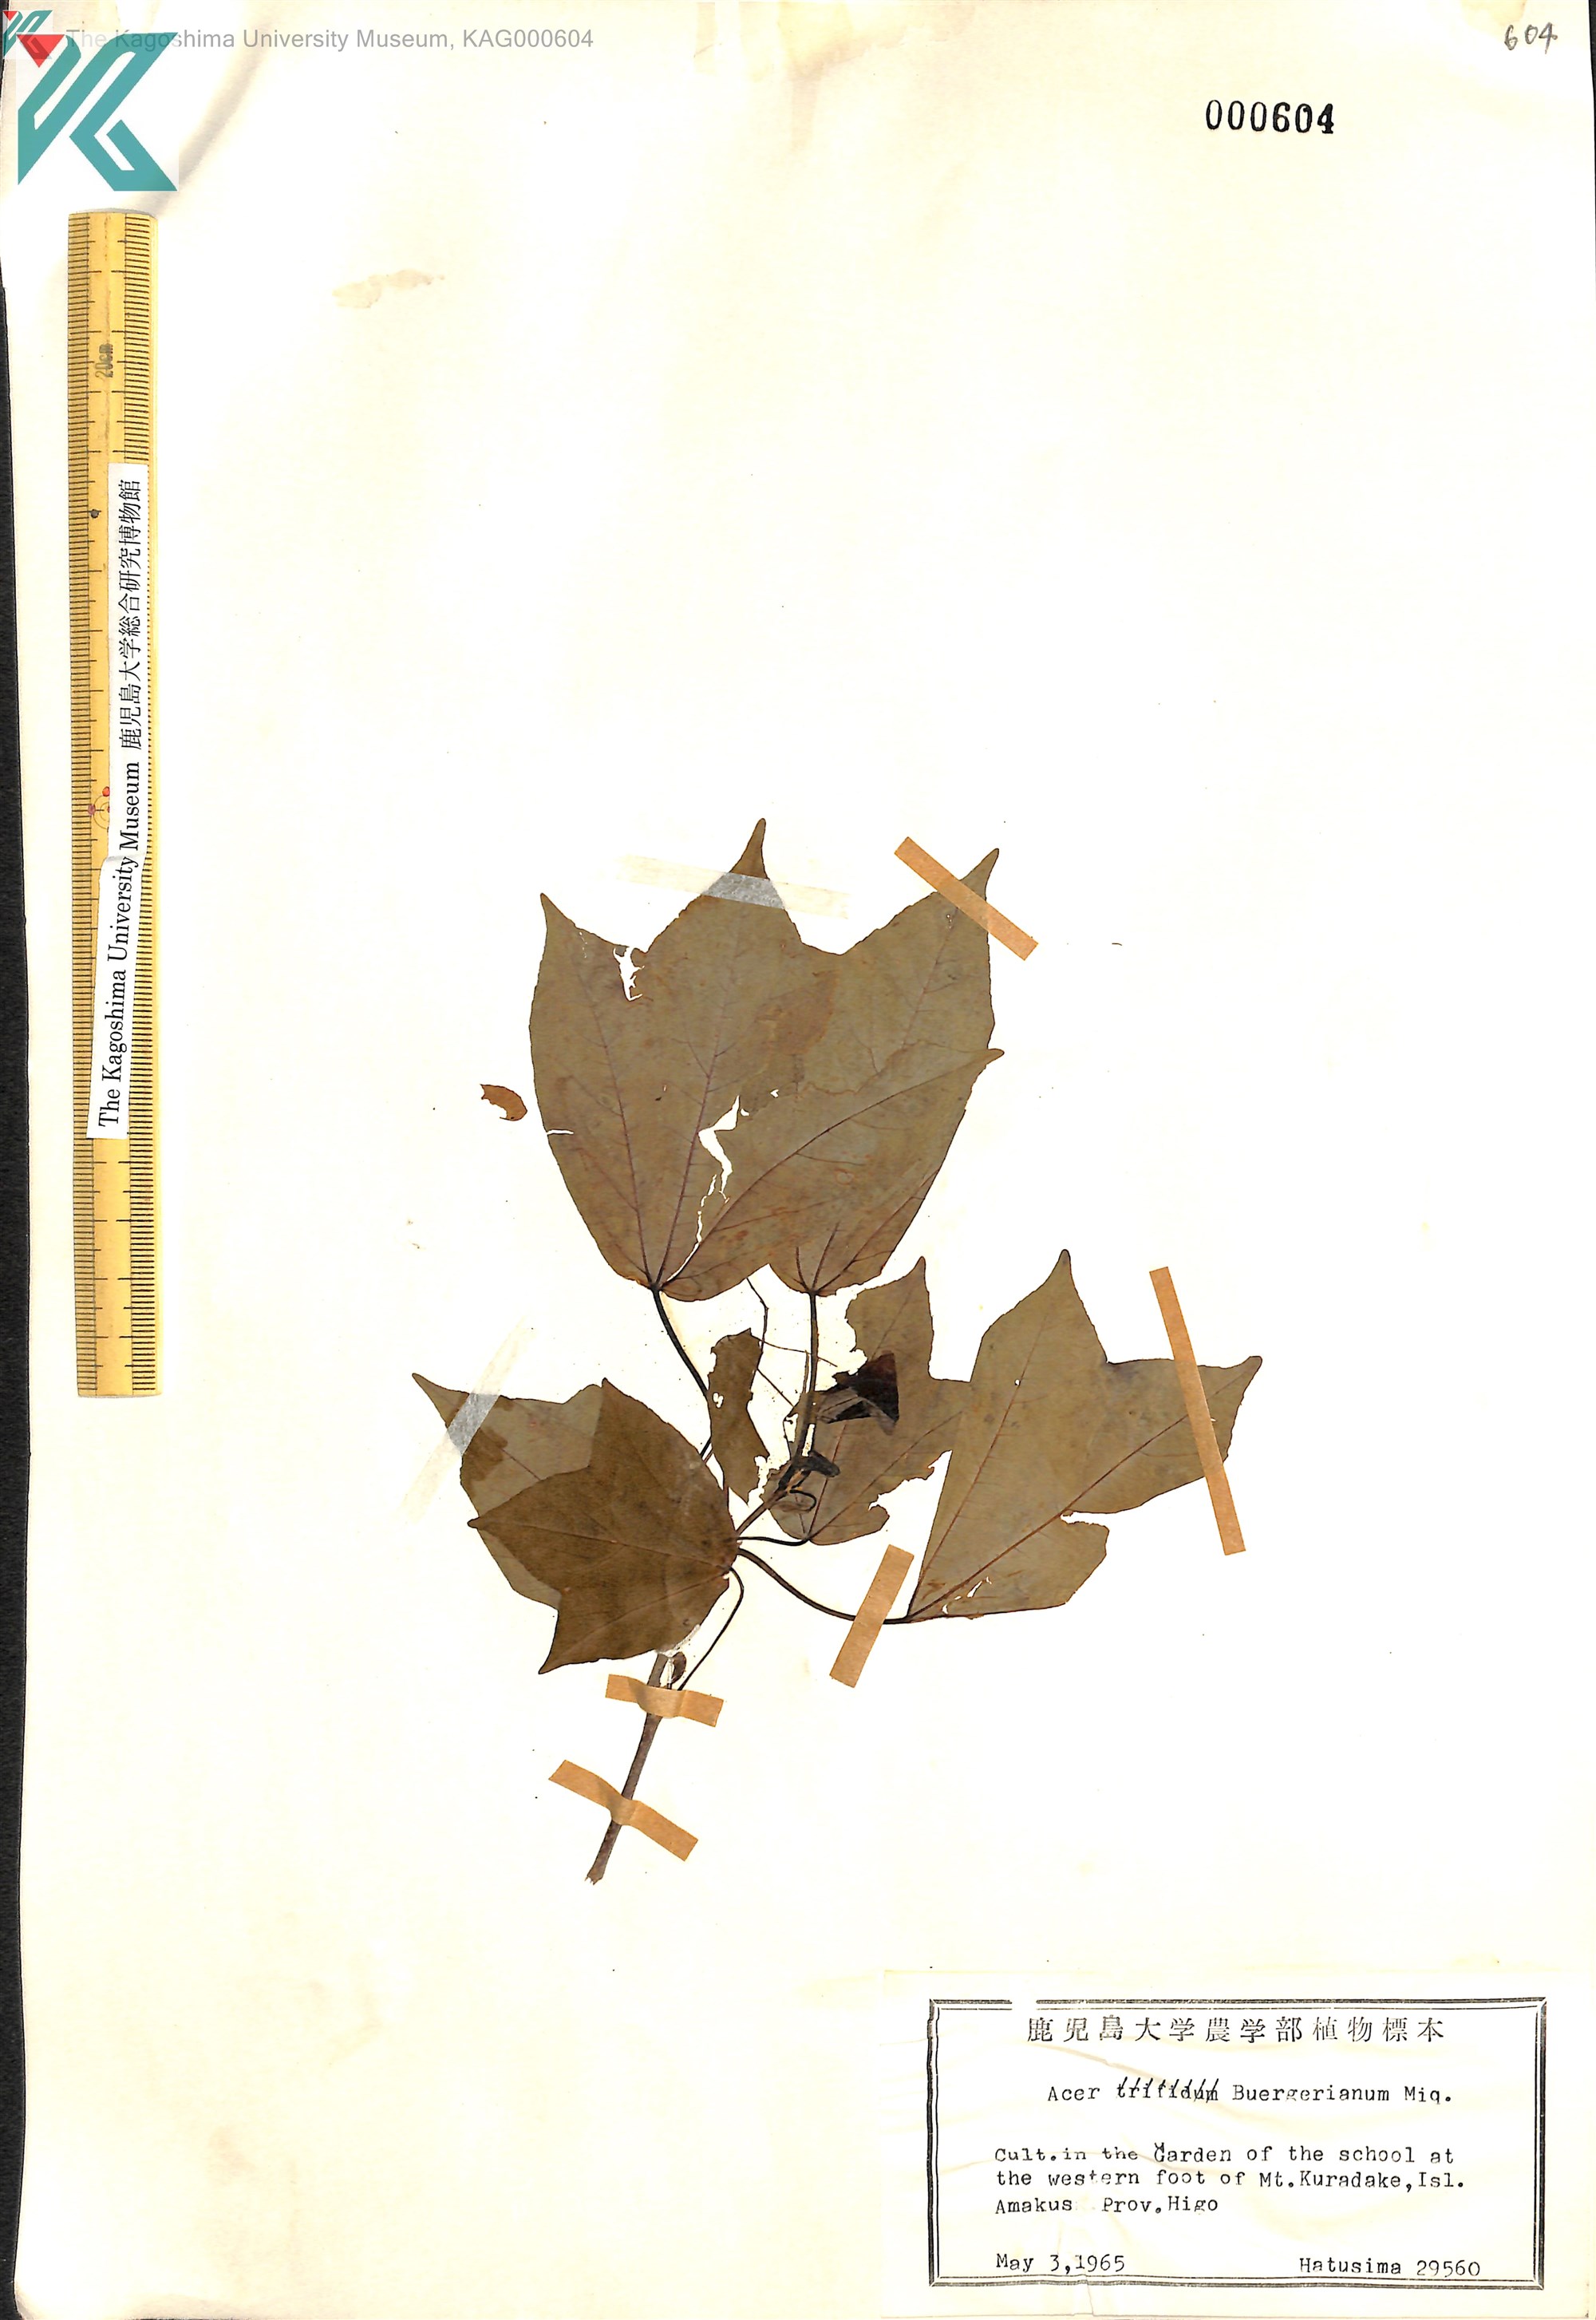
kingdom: Plantae
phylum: Tracheophyta
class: Magnoliopsida
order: Sapindales
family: Sapindaceae
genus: Acer
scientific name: Acer buergerianum
